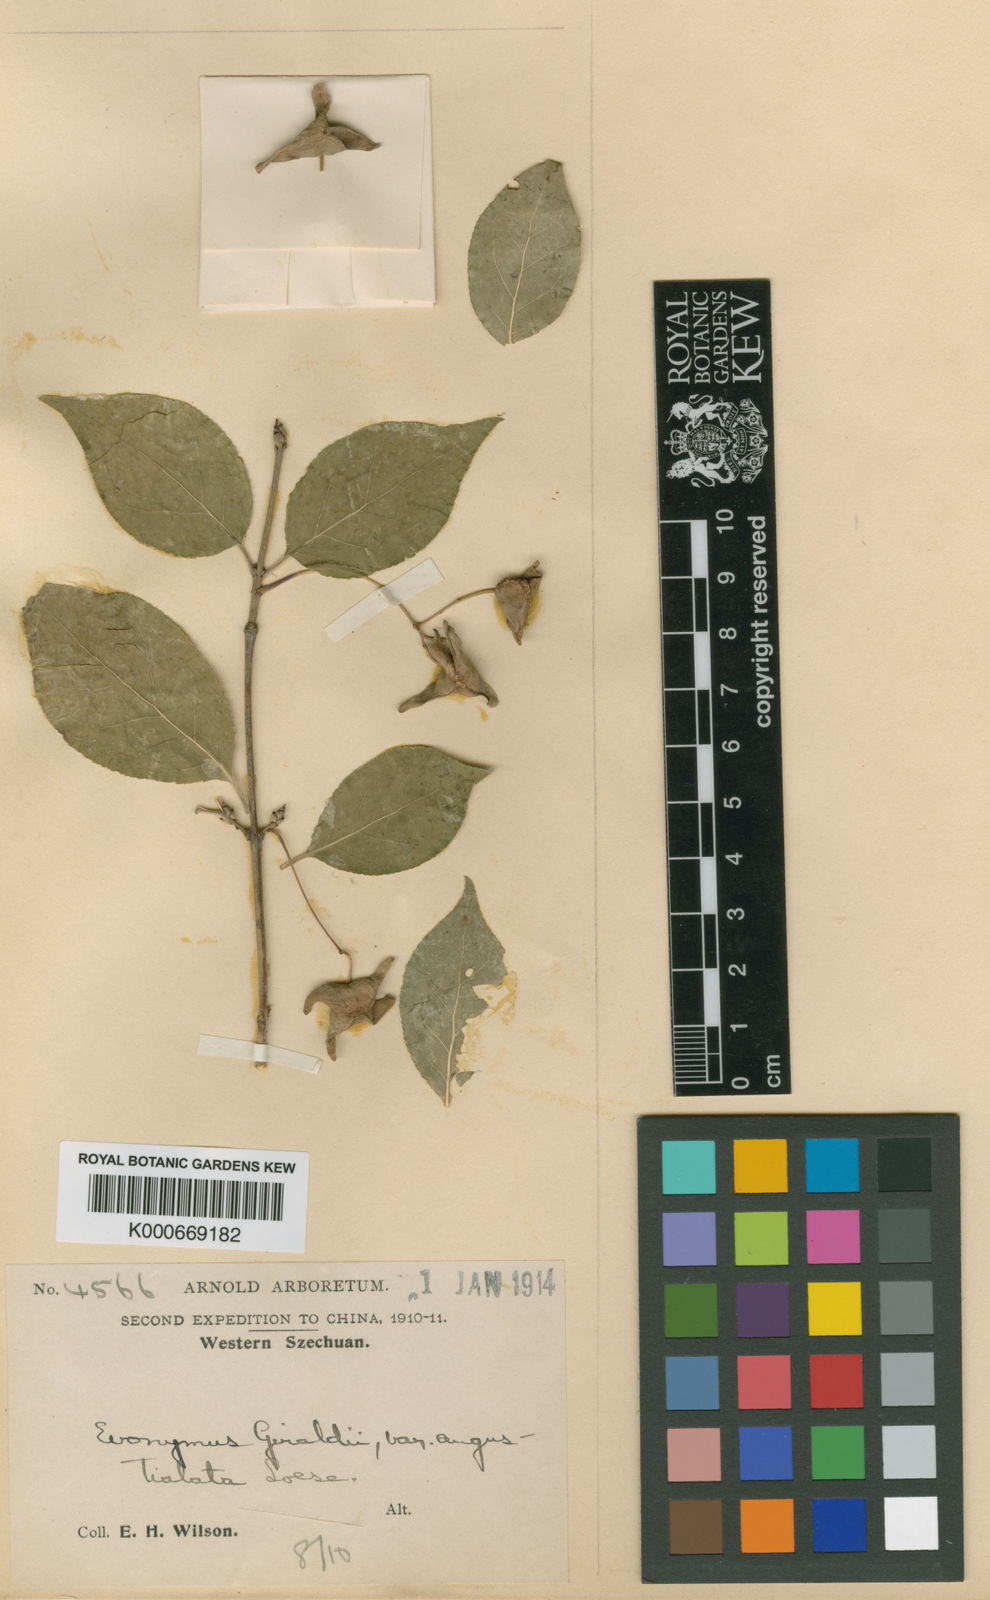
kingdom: Plantae
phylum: Tracheophyta
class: Magnoliopsida
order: Celastrales
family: Celastraceae
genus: Euonymus
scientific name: Euonymus giraldii
